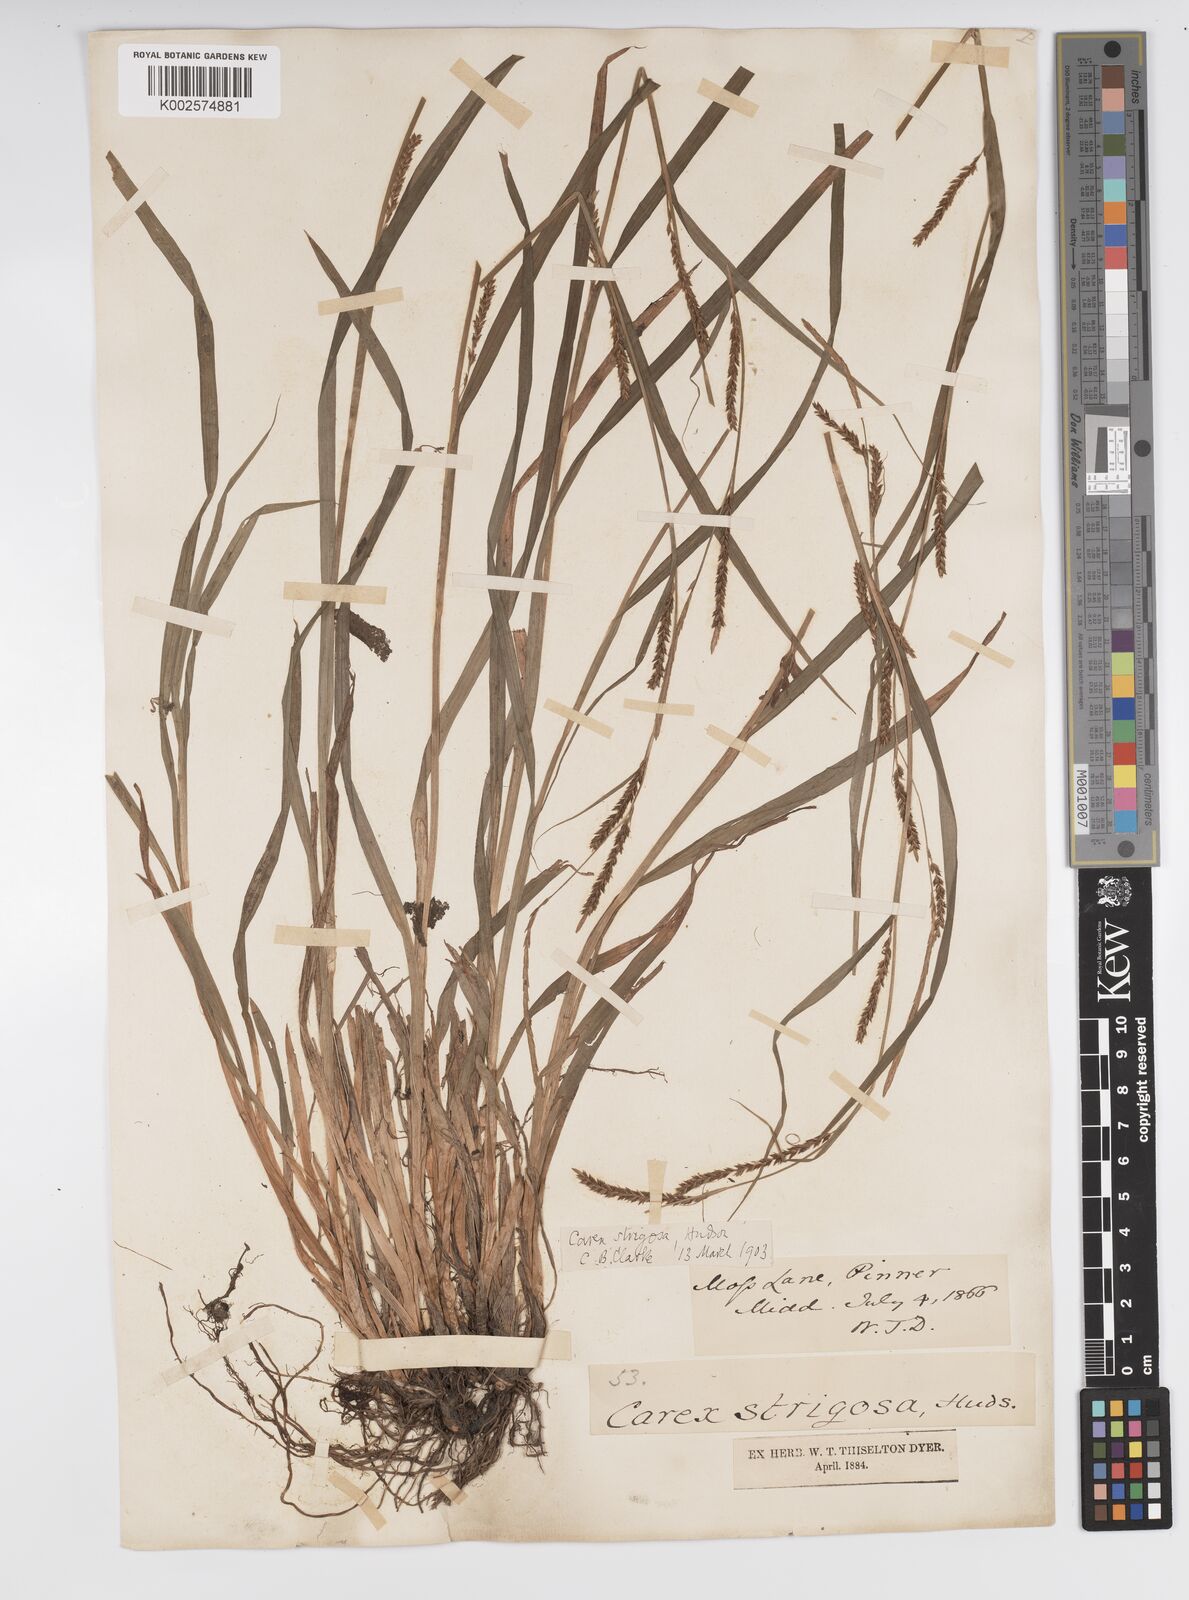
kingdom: Plantae
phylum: Tracheophyta
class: Liliopsida
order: Poales
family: Cyperaceae
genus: Carex
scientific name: Carex strigosa
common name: Thin-spiked wood-sedge
